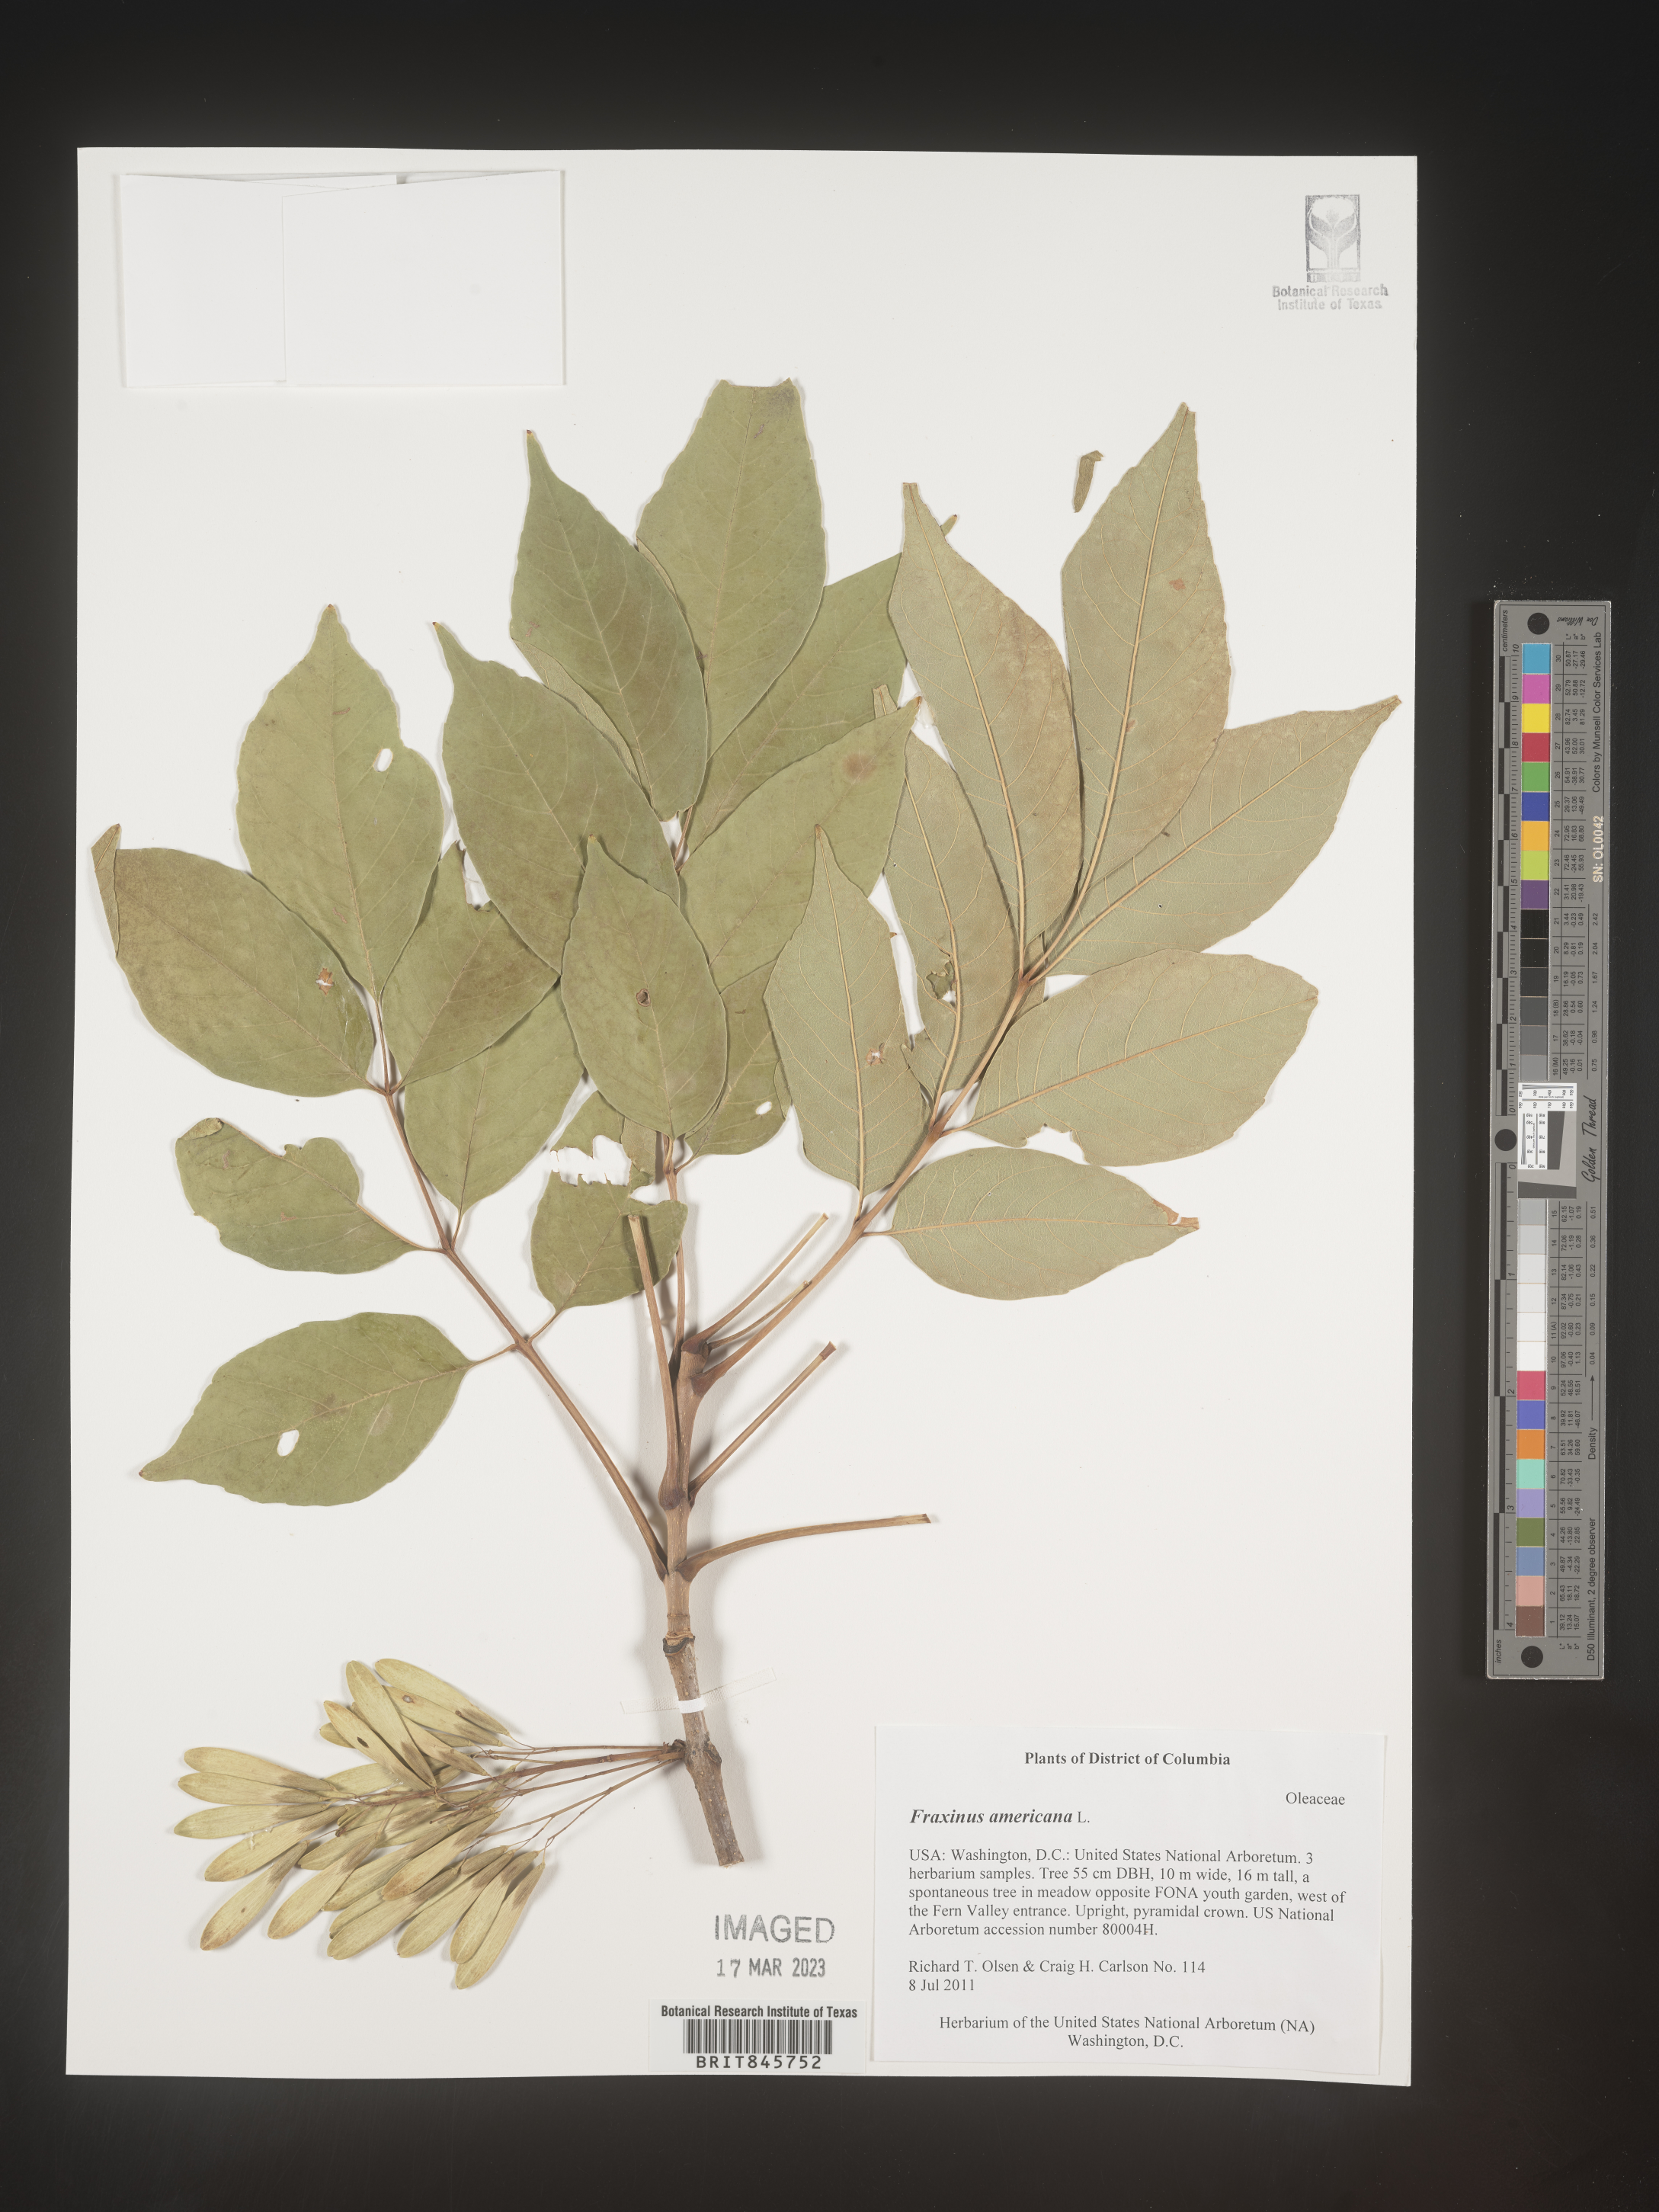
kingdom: Plantae
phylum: Tracheophyta
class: Magnoliopsida
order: Lamiales
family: Oleaceae
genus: Fraxinus
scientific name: Fraxinus americana
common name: White ash
